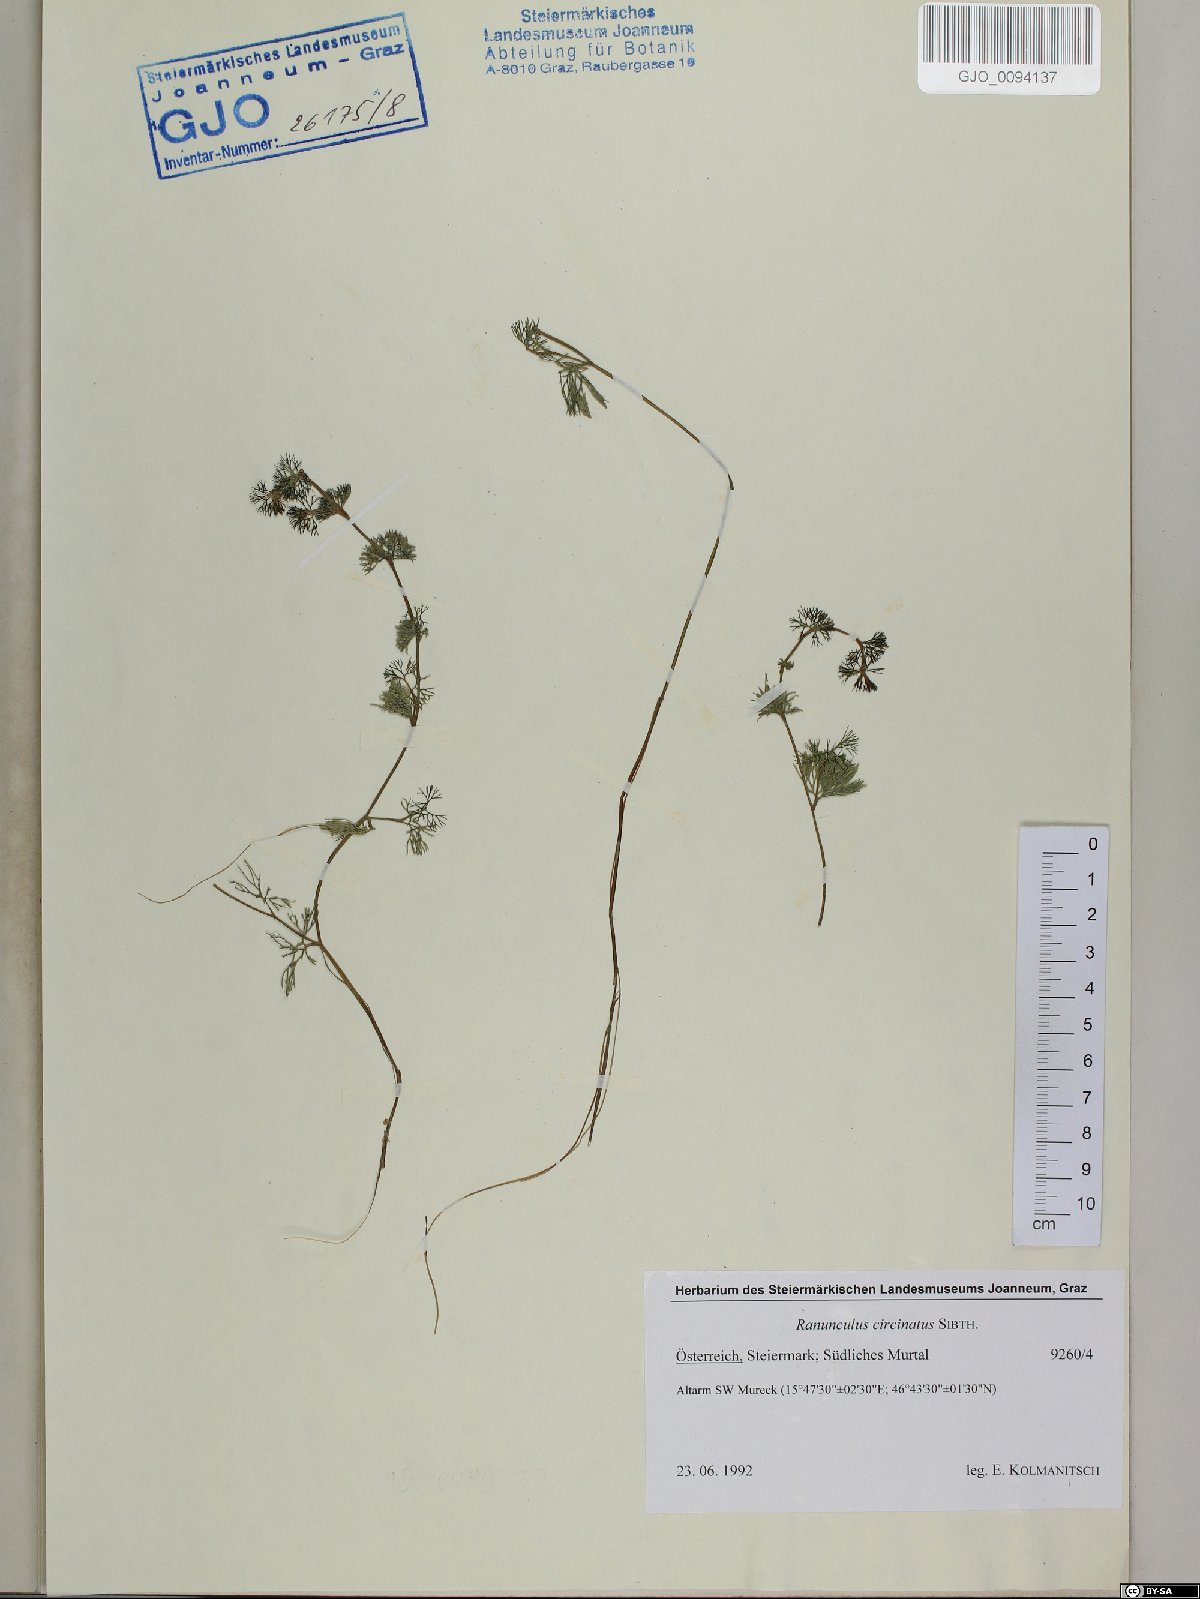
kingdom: Plantae
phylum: Tracheophyta
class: Magnoliopsida
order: Ranunculales
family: Ranunculaceae
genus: Ranunculus
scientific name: Ranunculus circinatus
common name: Fan-leaved water-crowfoot
